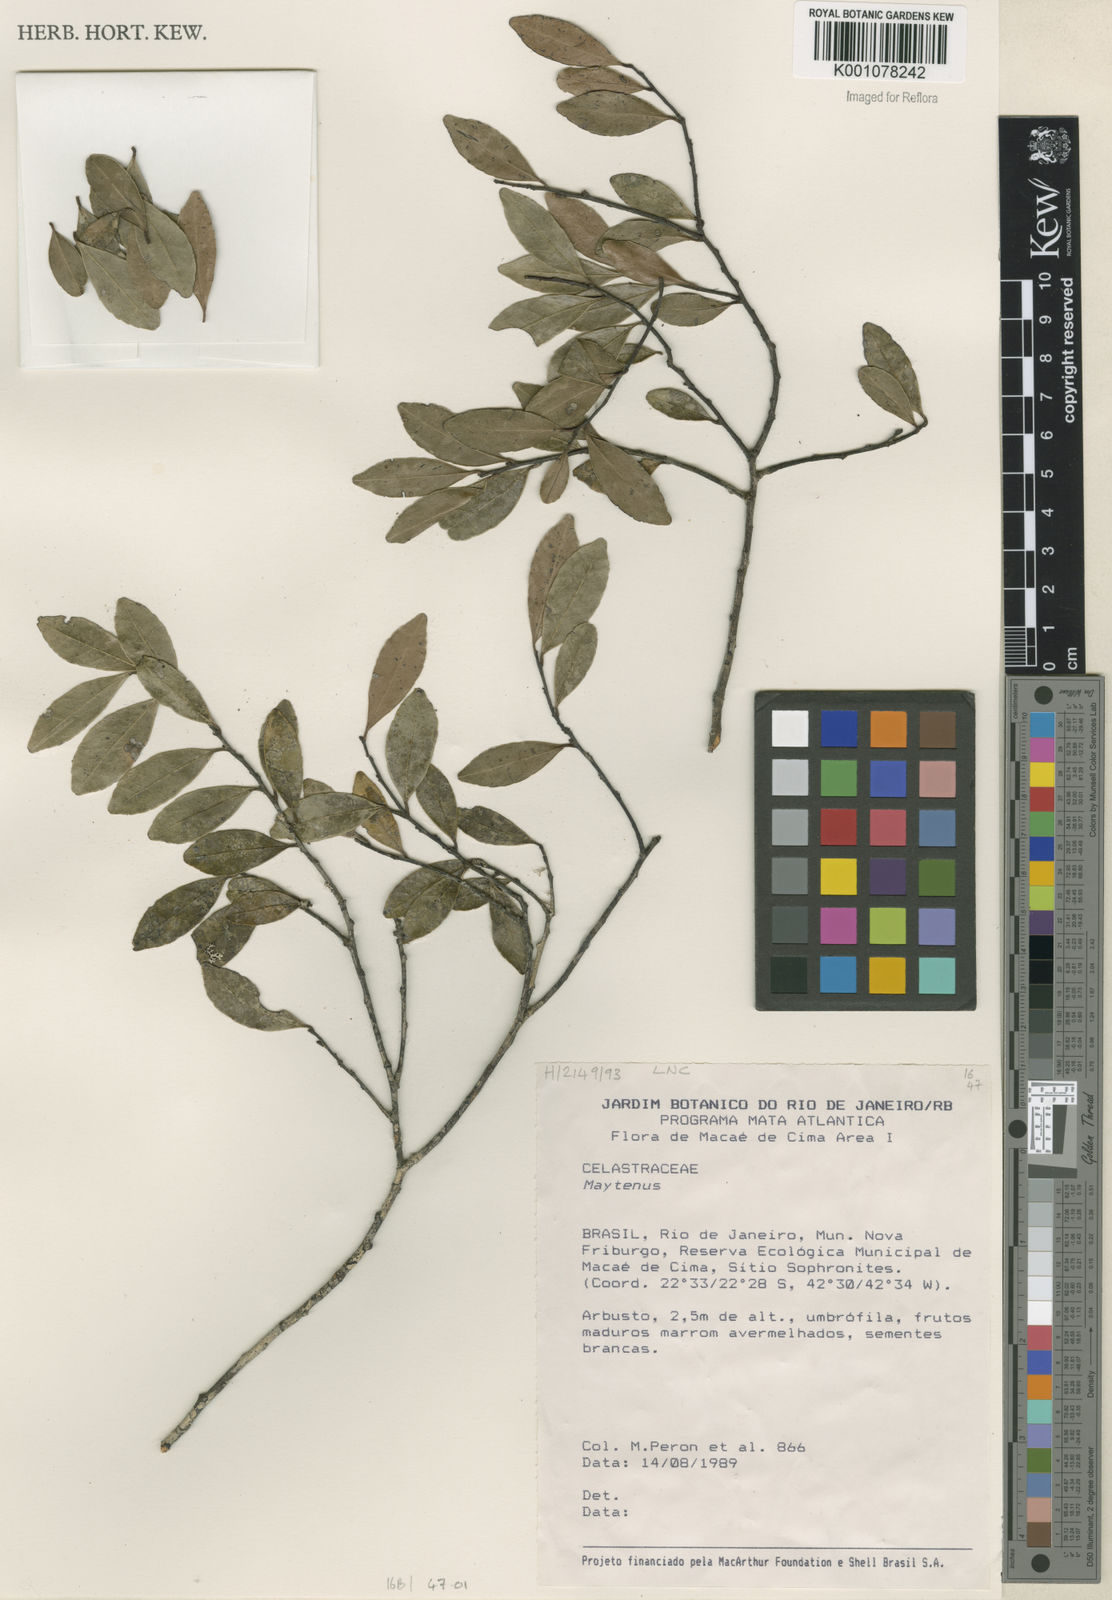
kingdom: Plantae
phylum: Tracheophyta
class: Magnoliopsida
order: Celastrales
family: Celastraceae
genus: Maytenus
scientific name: Maytenus
